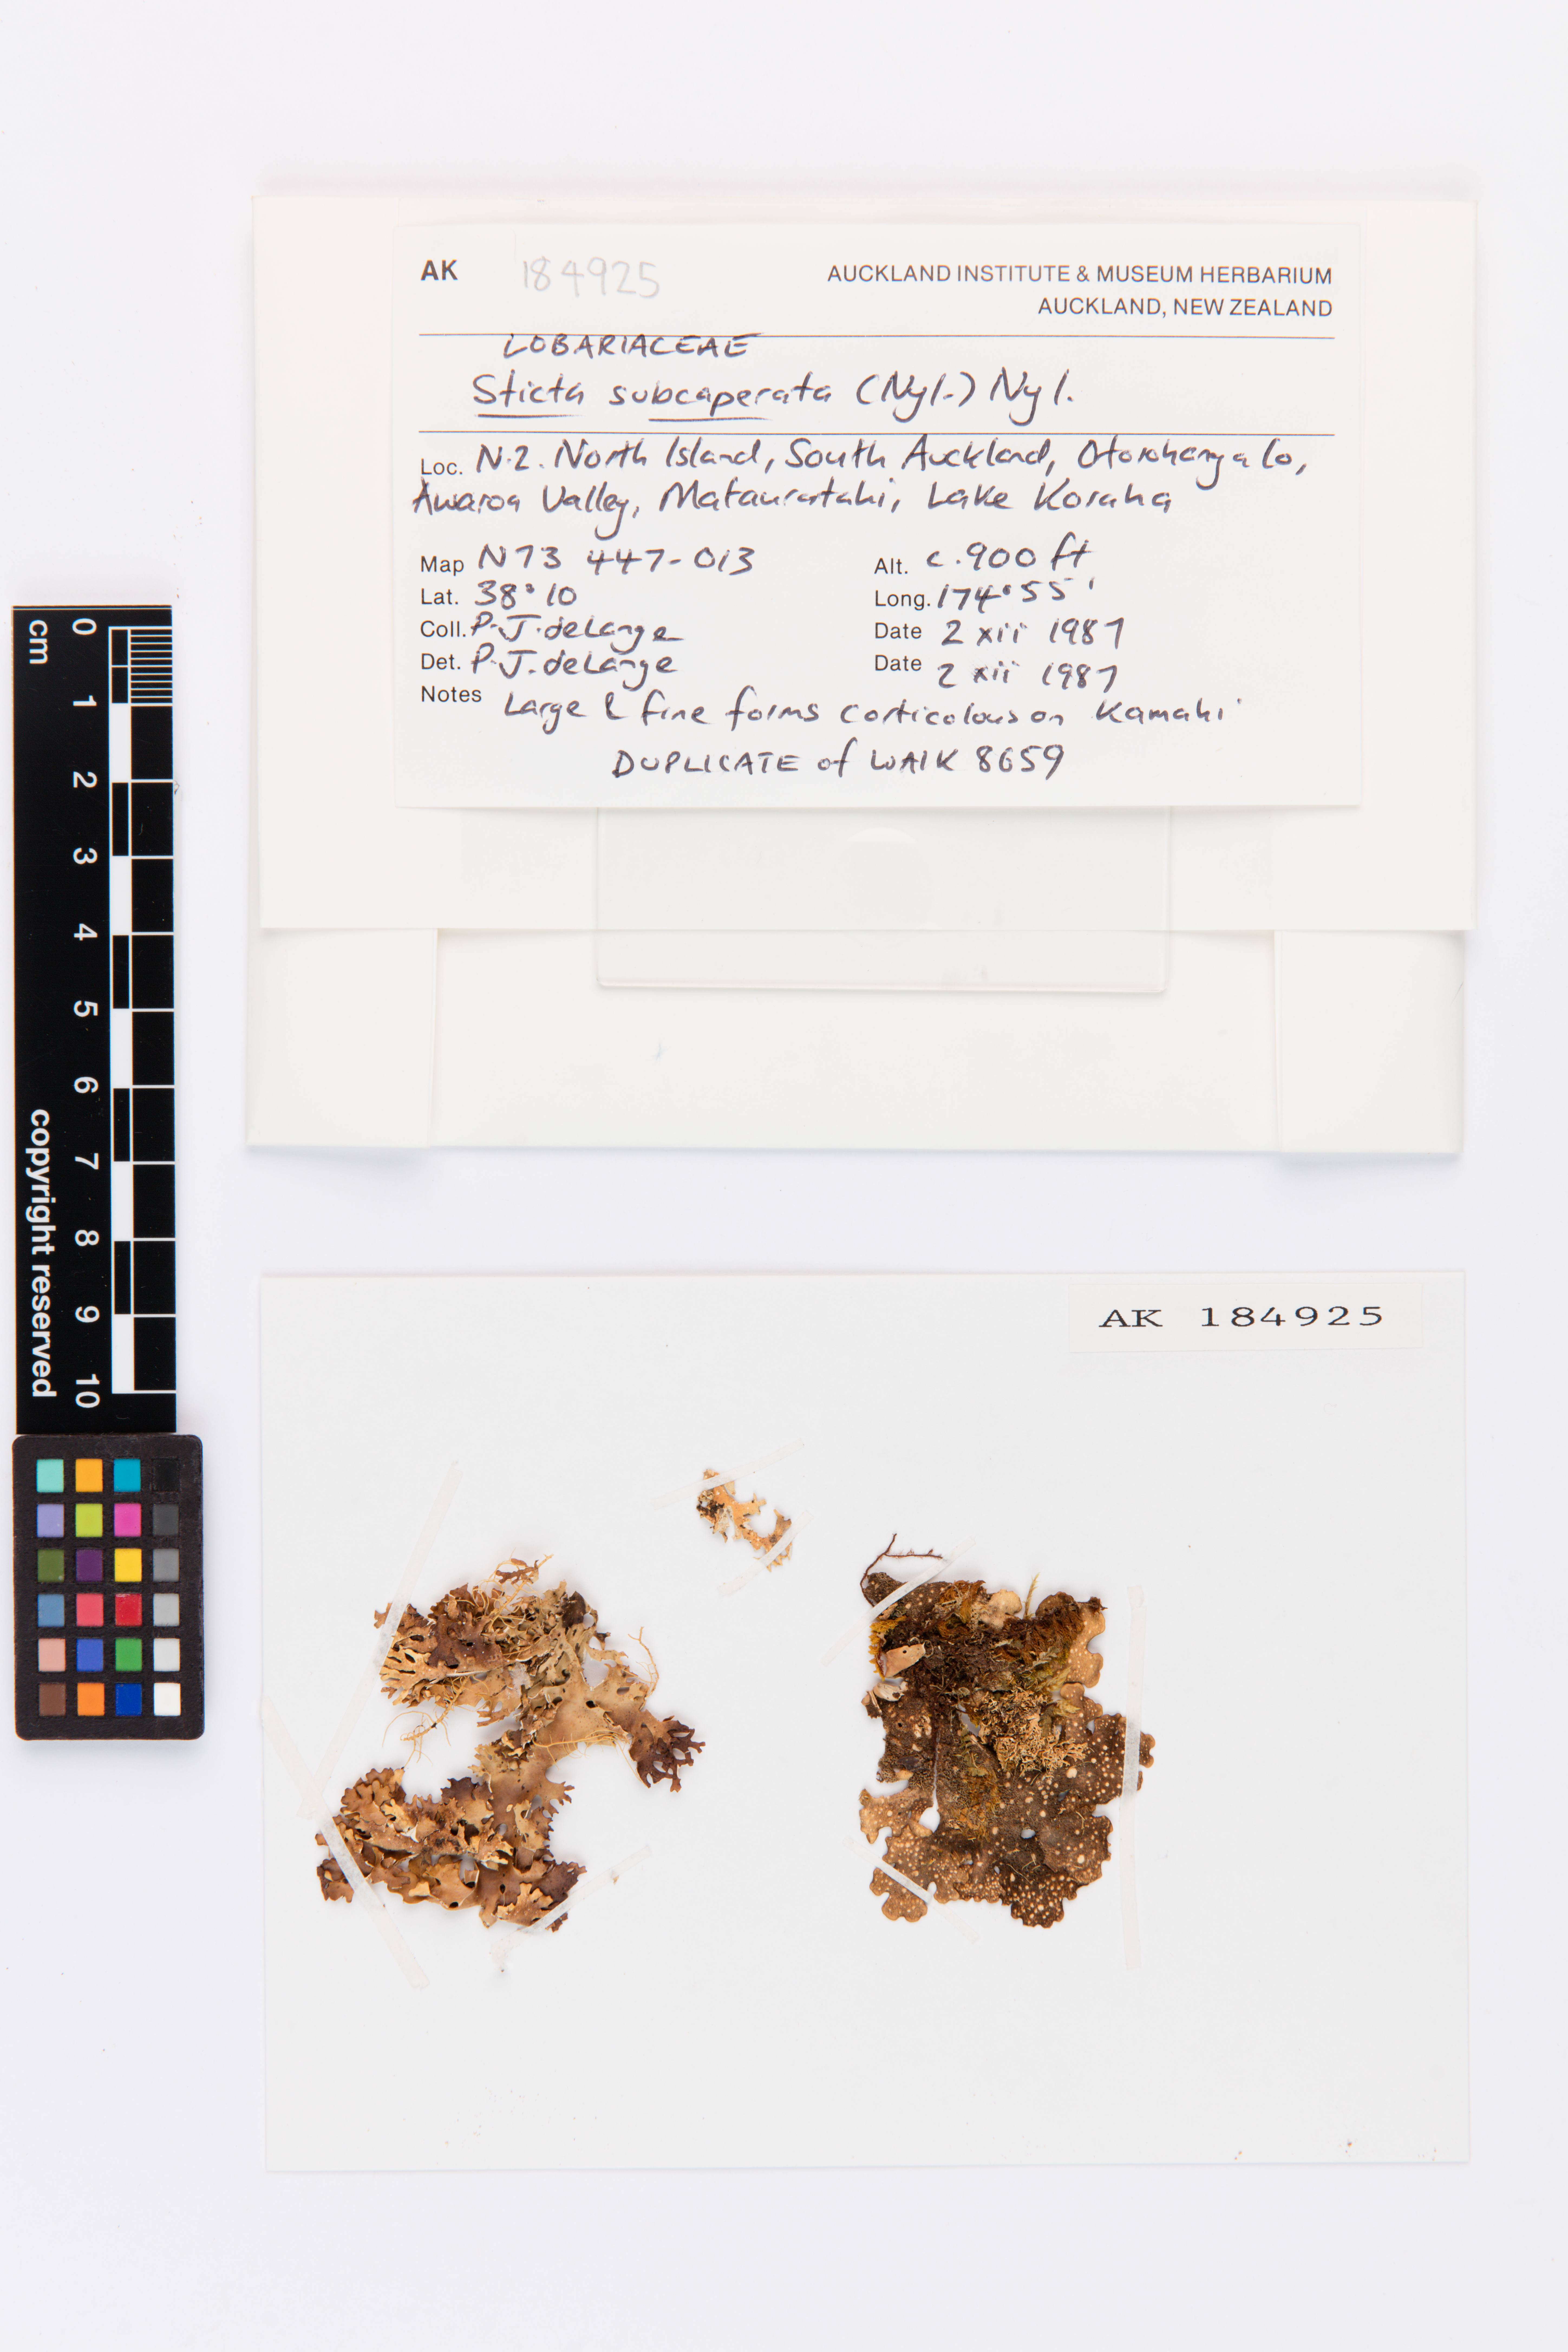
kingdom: Fungi
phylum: Ascomycota
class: Lecanoromycetes
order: Peltigerales
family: Lobariaceae
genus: Sticta
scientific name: Sticta subcaperata
